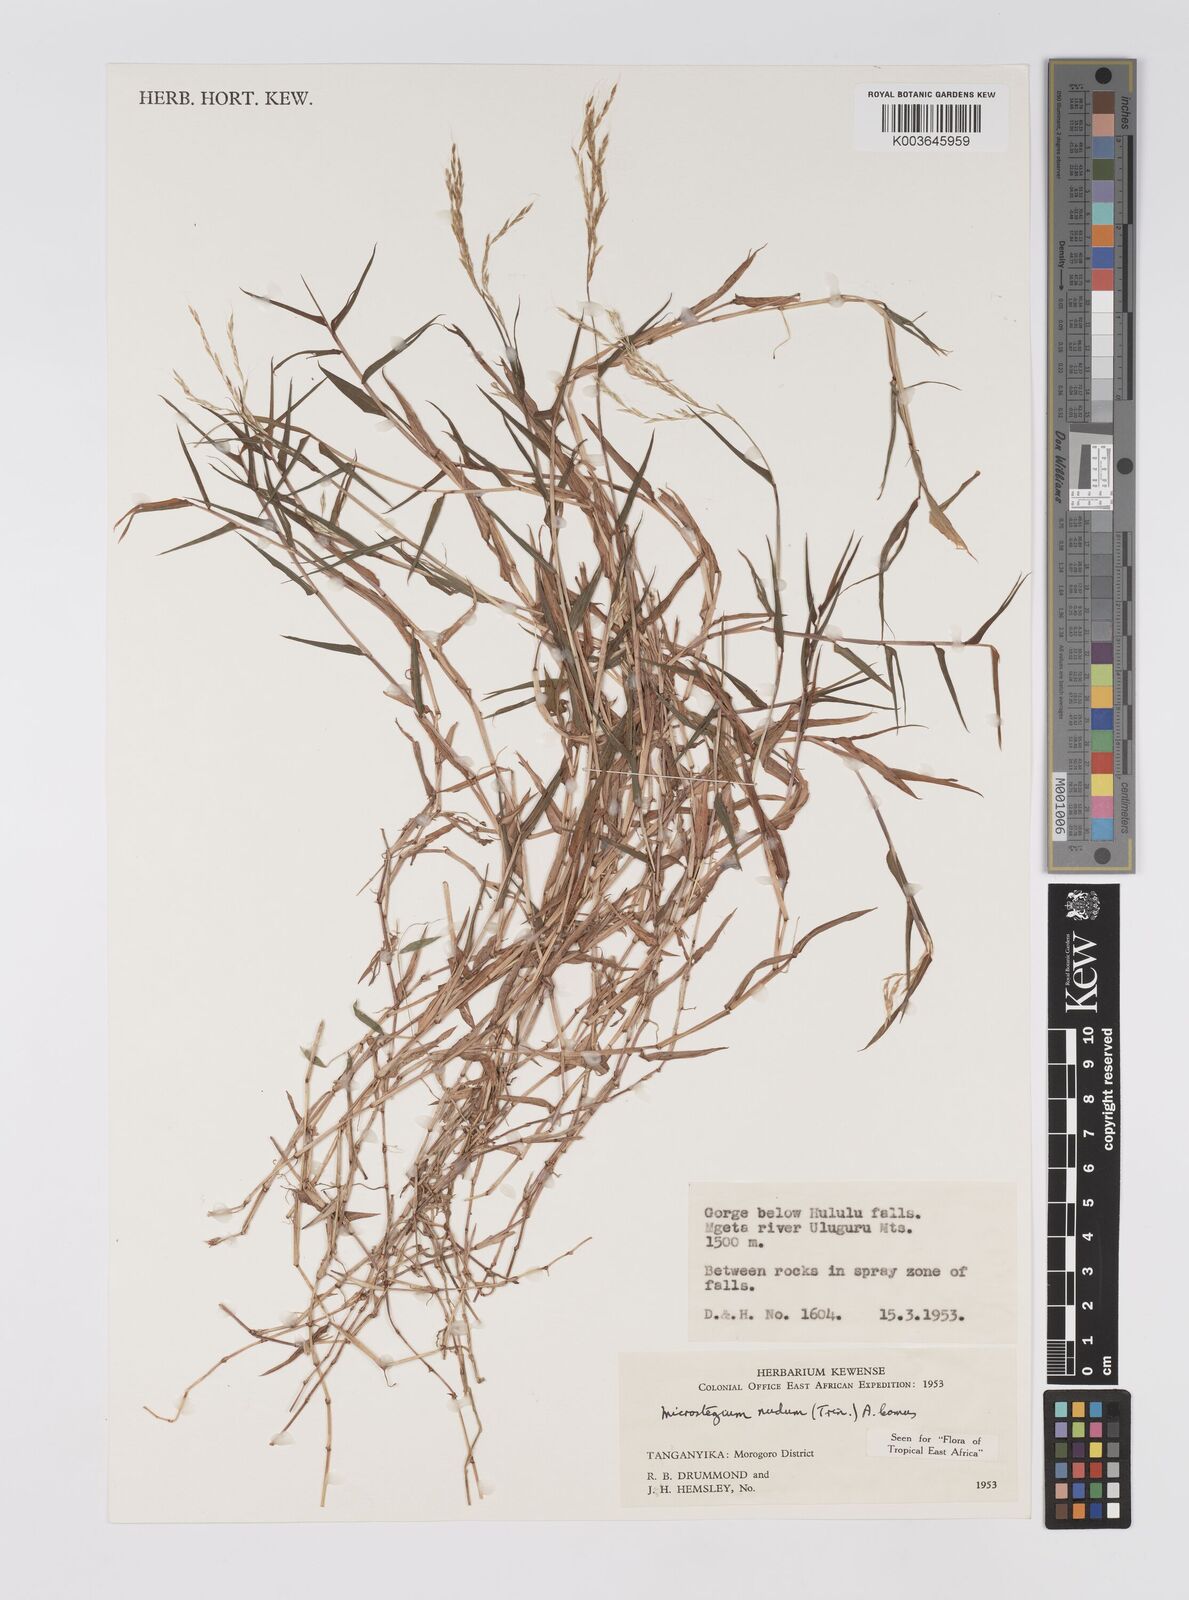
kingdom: Plantae
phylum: Tracheophyta
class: Liliopsida
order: Poales
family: Poaceae
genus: Microstegium
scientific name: Microstegium nudum
